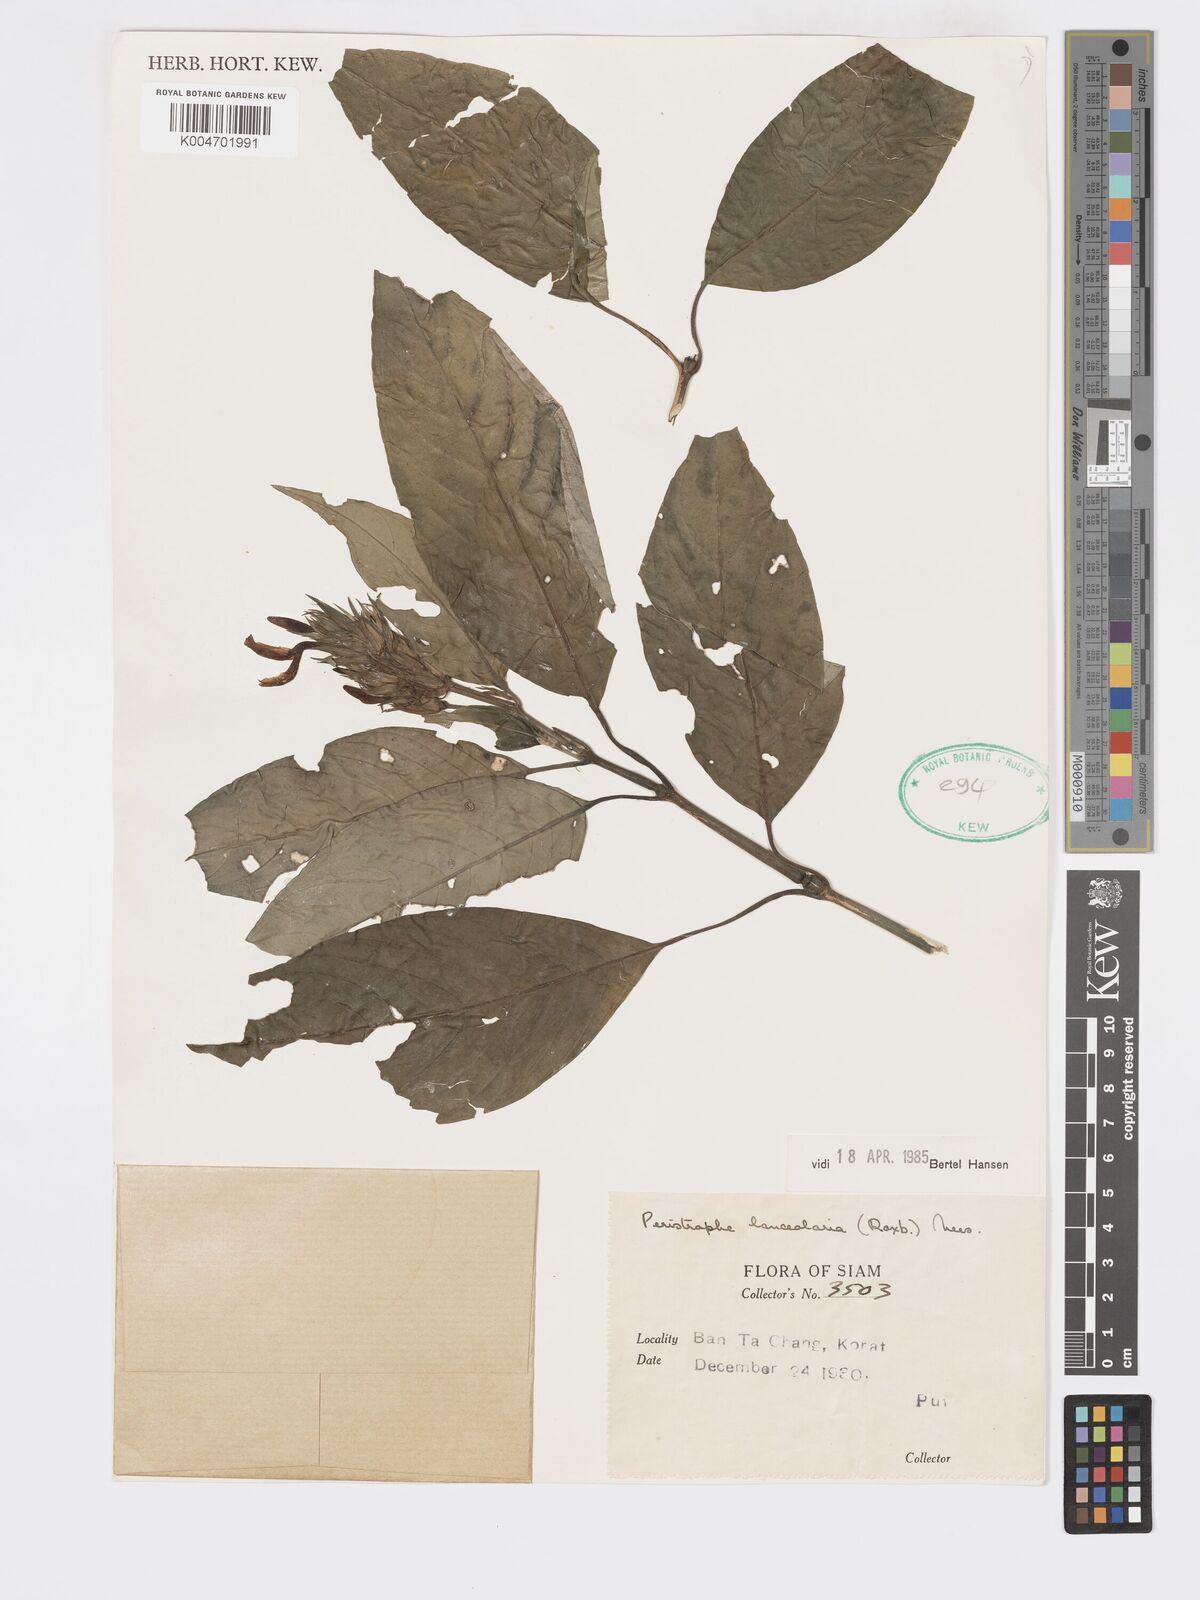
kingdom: Plantae
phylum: Tracheophyta
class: Magnoliopsida
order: Lamiales
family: Acanthaceae
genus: Dicliptera
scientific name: Dicliptera lanceolaria
